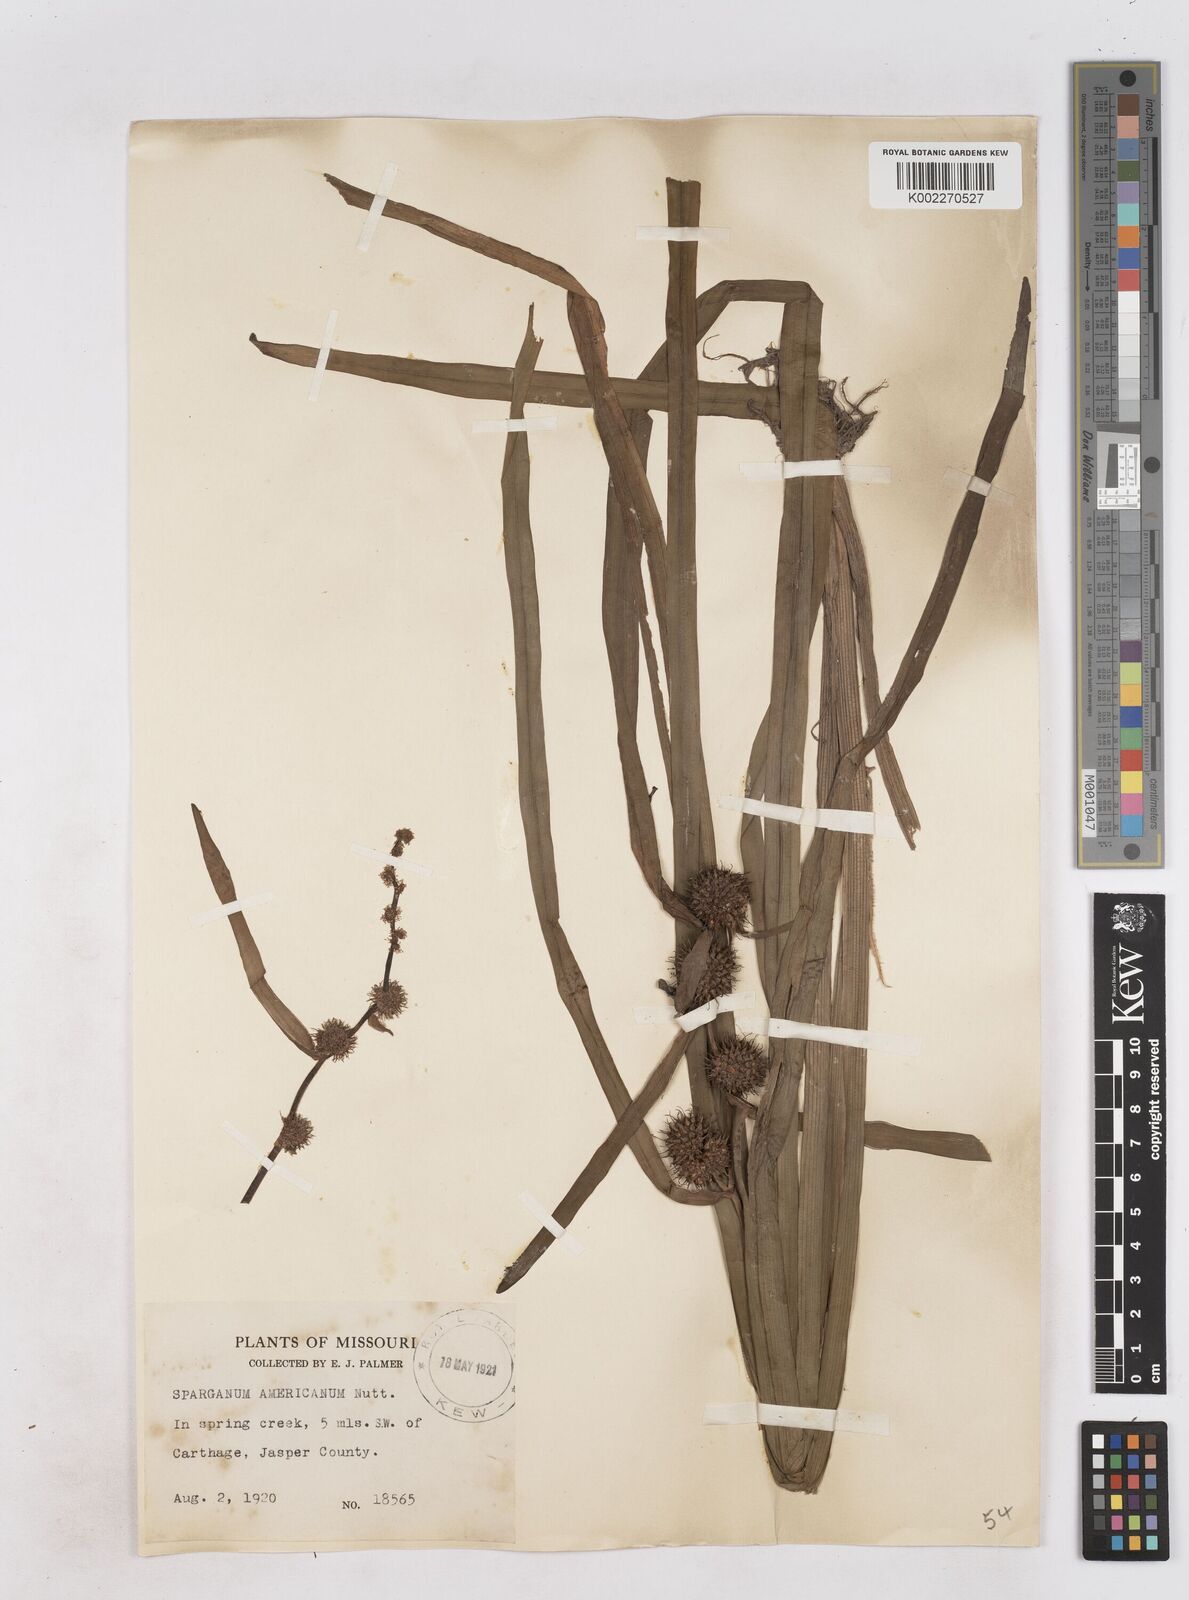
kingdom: Plantae
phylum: Tracheophyta
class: Liliopsida
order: Poales
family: Typhaceae
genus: Sparganium
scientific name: Sparganium americanum
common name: American burreed
